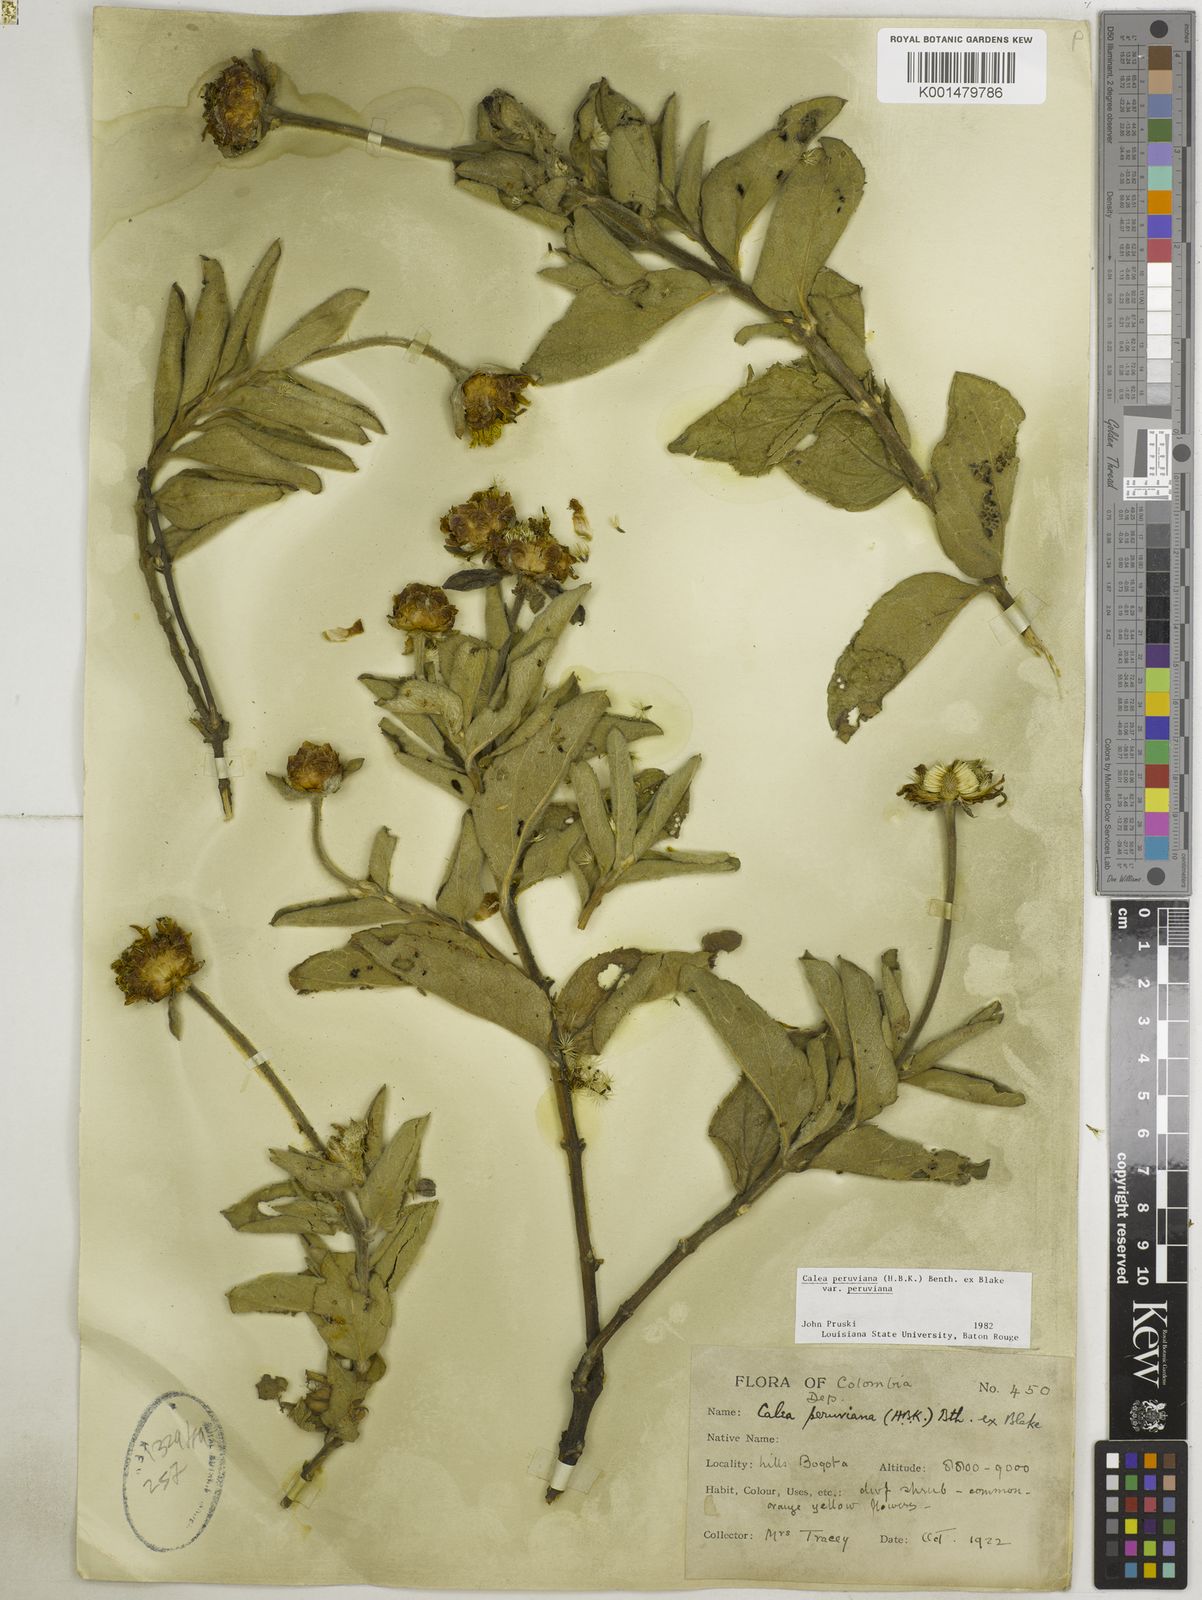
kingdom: Plantae
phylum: Tracheophyta
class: Magnoliopsida
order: Asterales
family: Asteraceae
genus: Calea
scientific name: Calea peruviana
